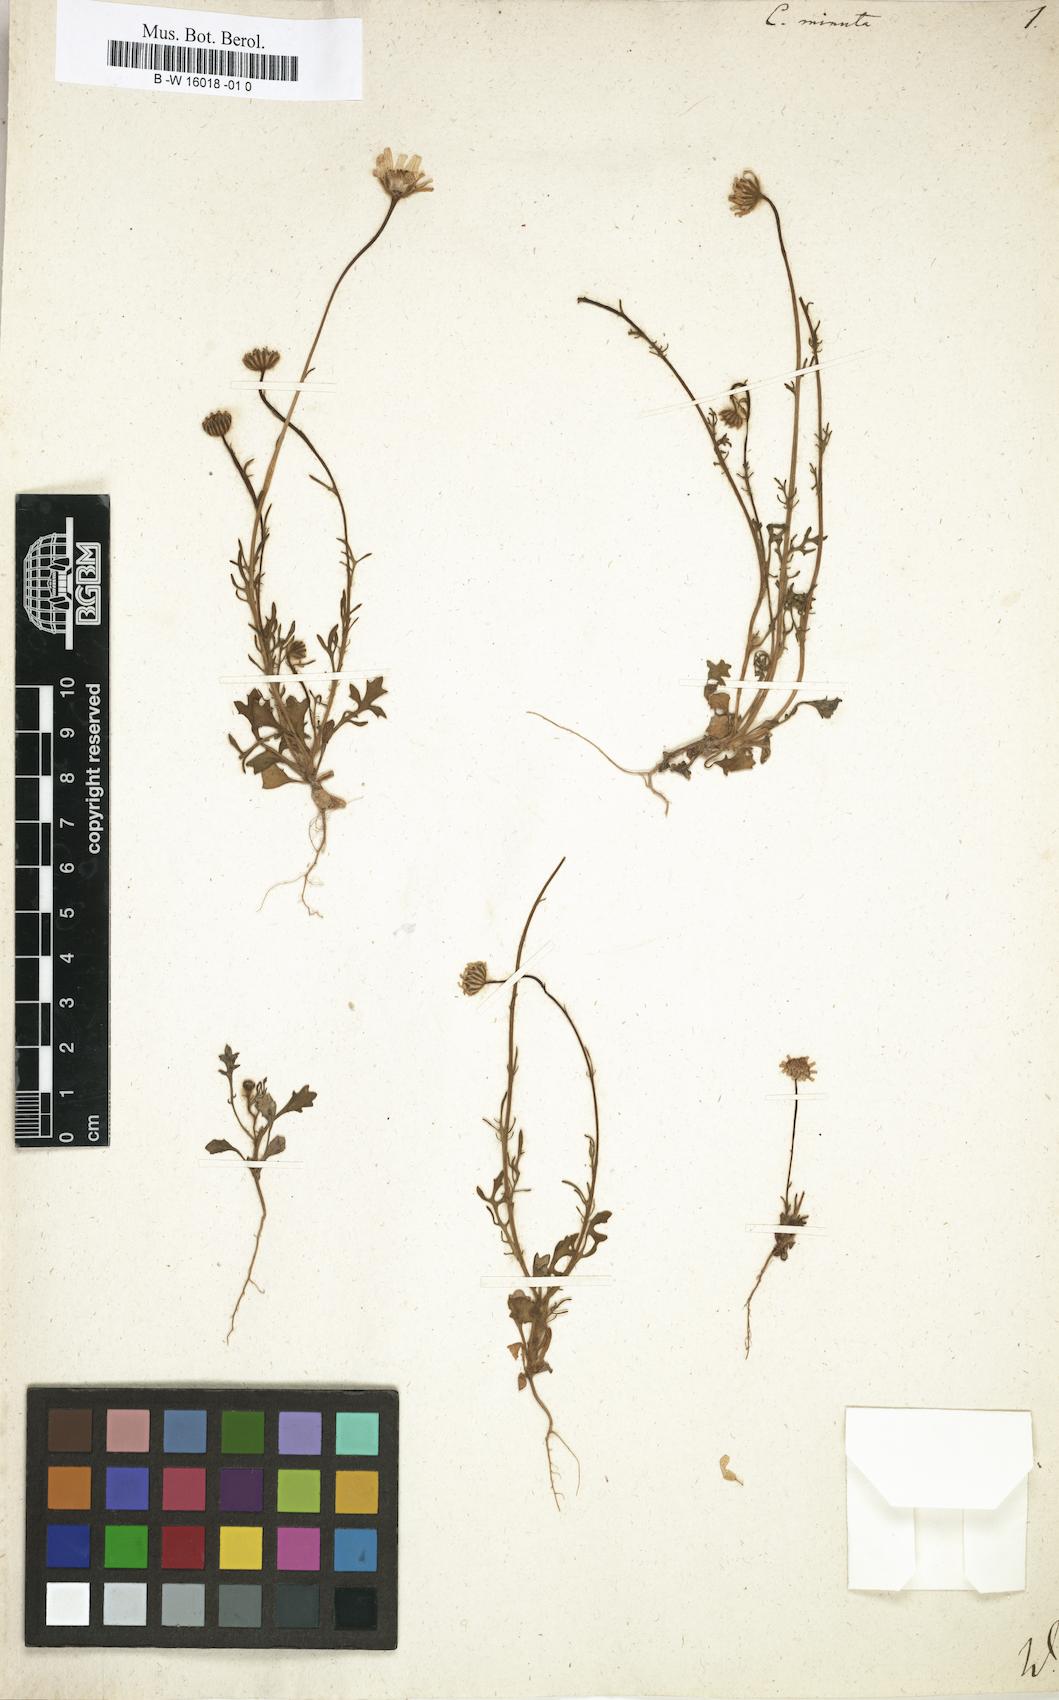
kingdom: Plantae
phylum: Tracheophyta
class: Magnoliopsida
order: Asterales
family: Asteraceae
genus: Jacobaea
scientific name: Jacobaea minuta
